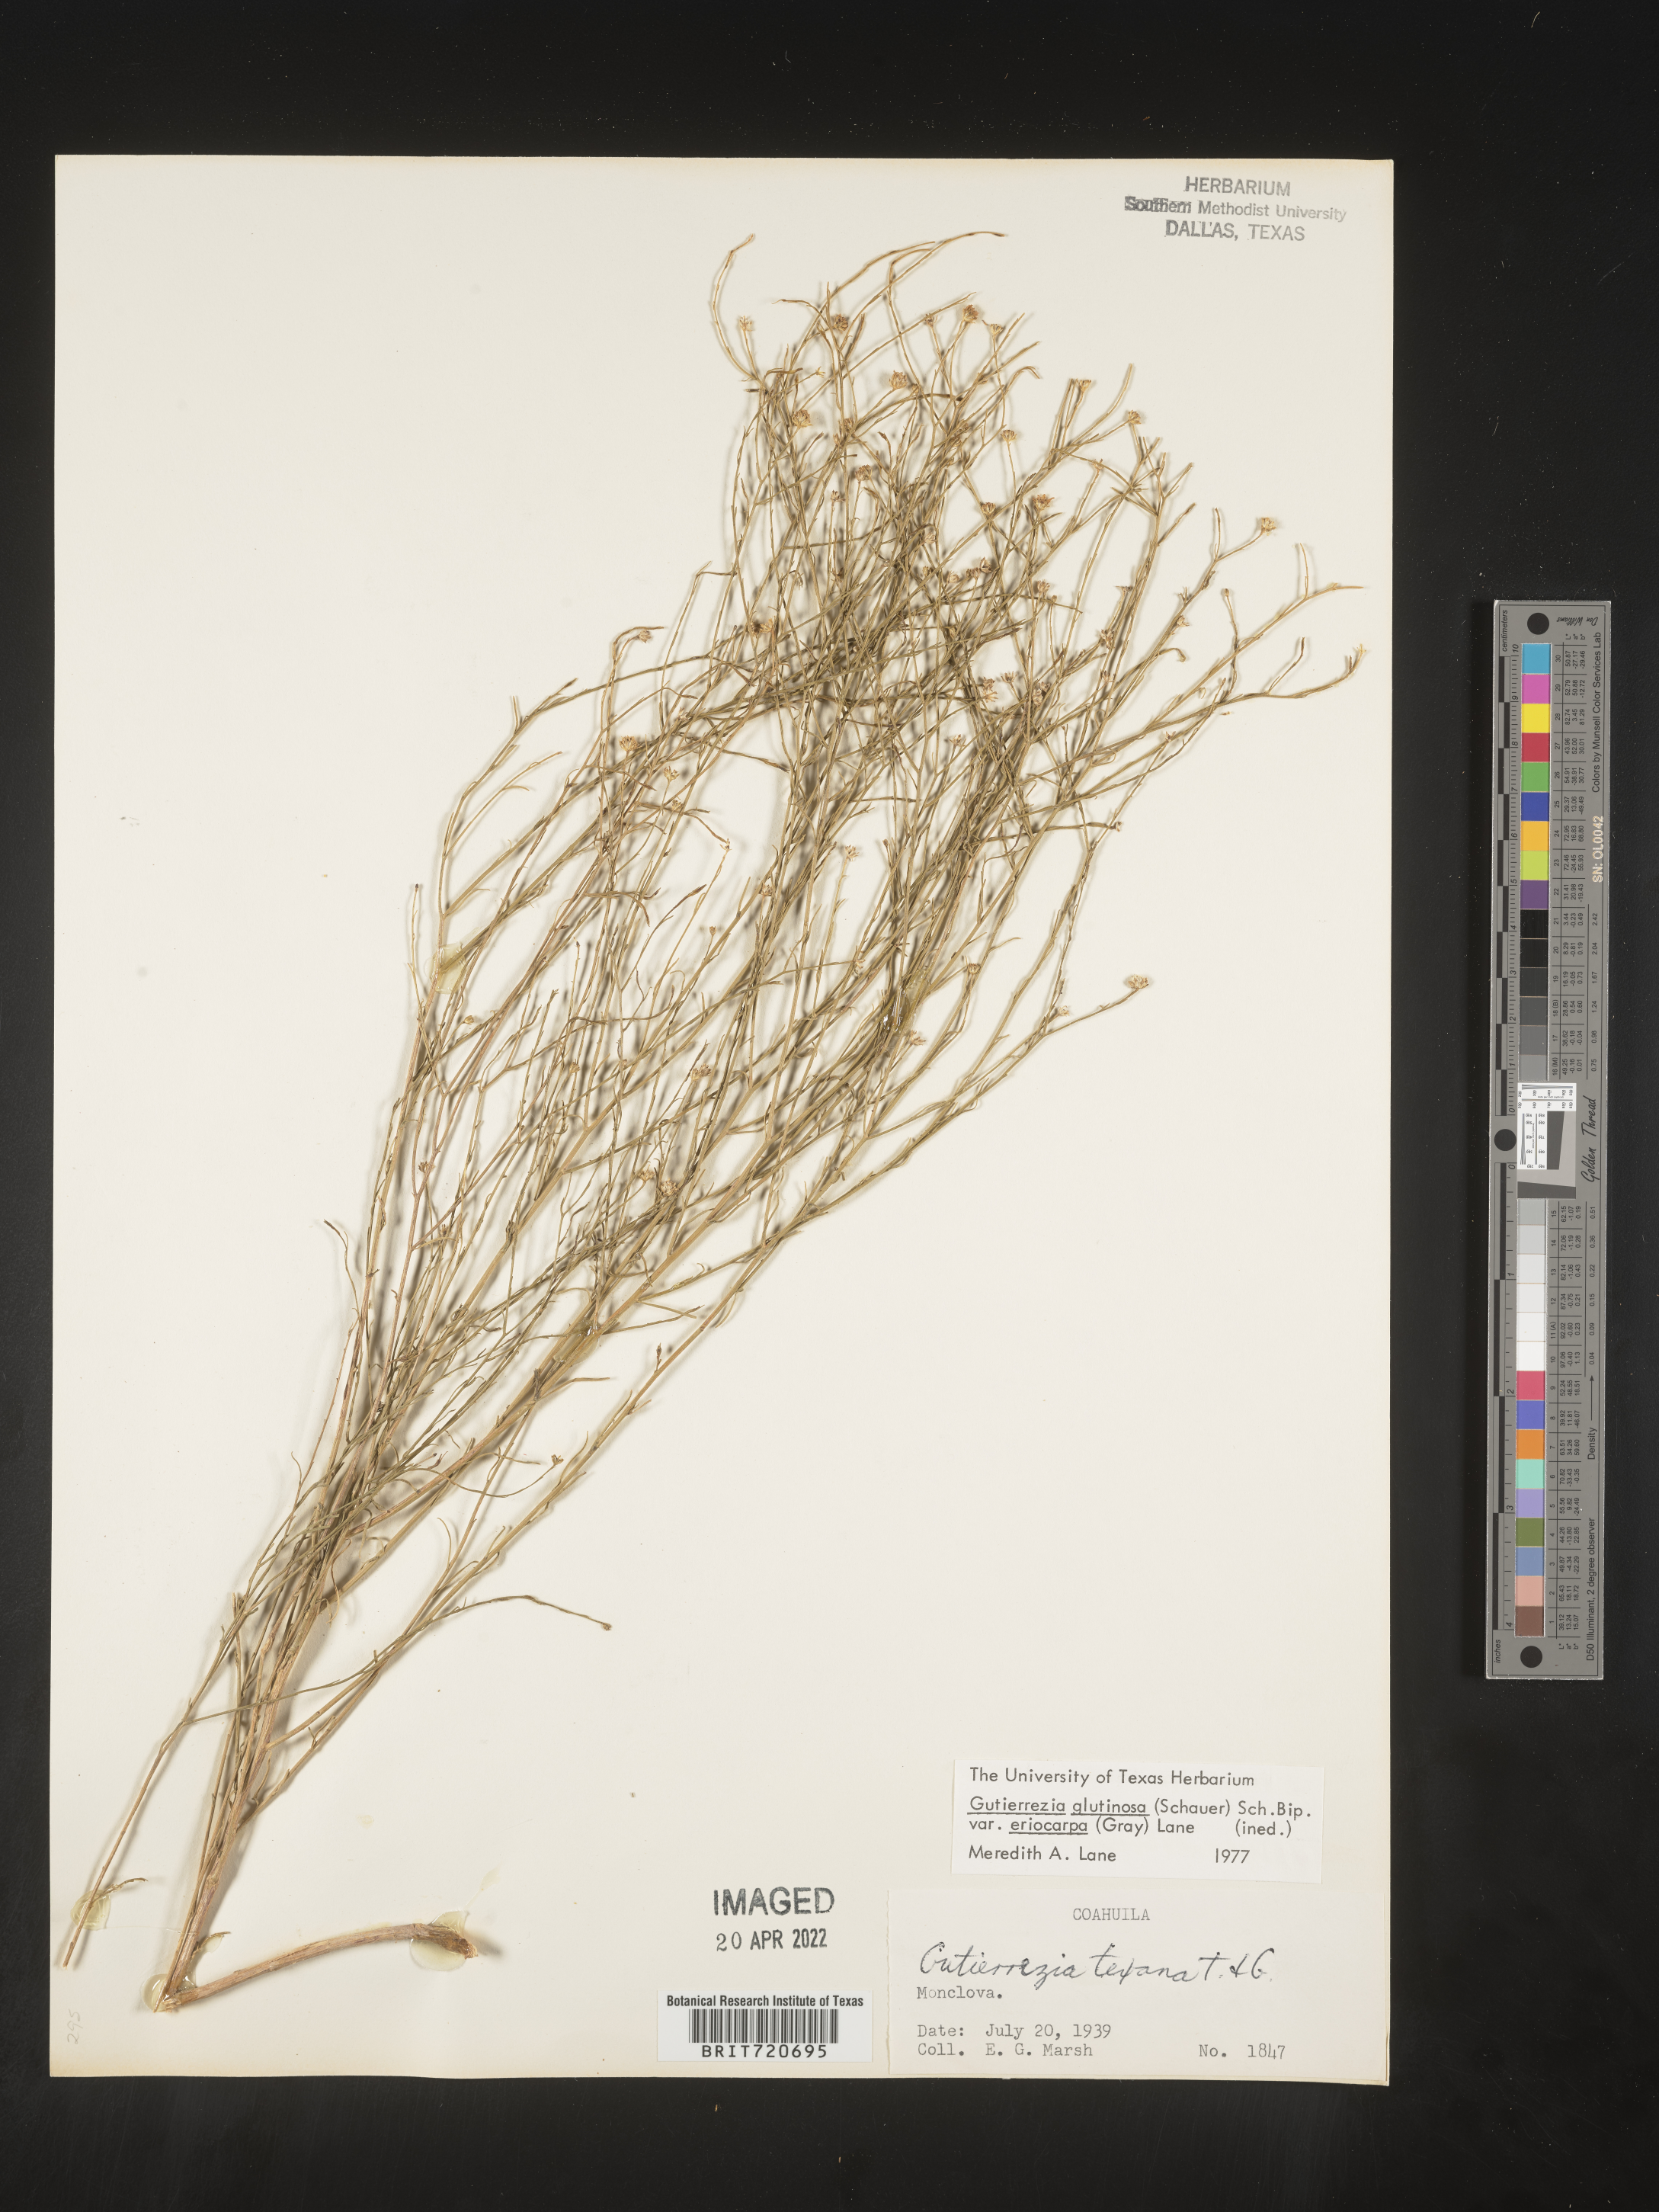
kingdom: Plantae
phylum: Tracheophyta
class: Magnoliopsida
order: Asterales
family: Asteraceae
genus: Gutierrezia
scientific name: Gutierrezia sphaerocephala
